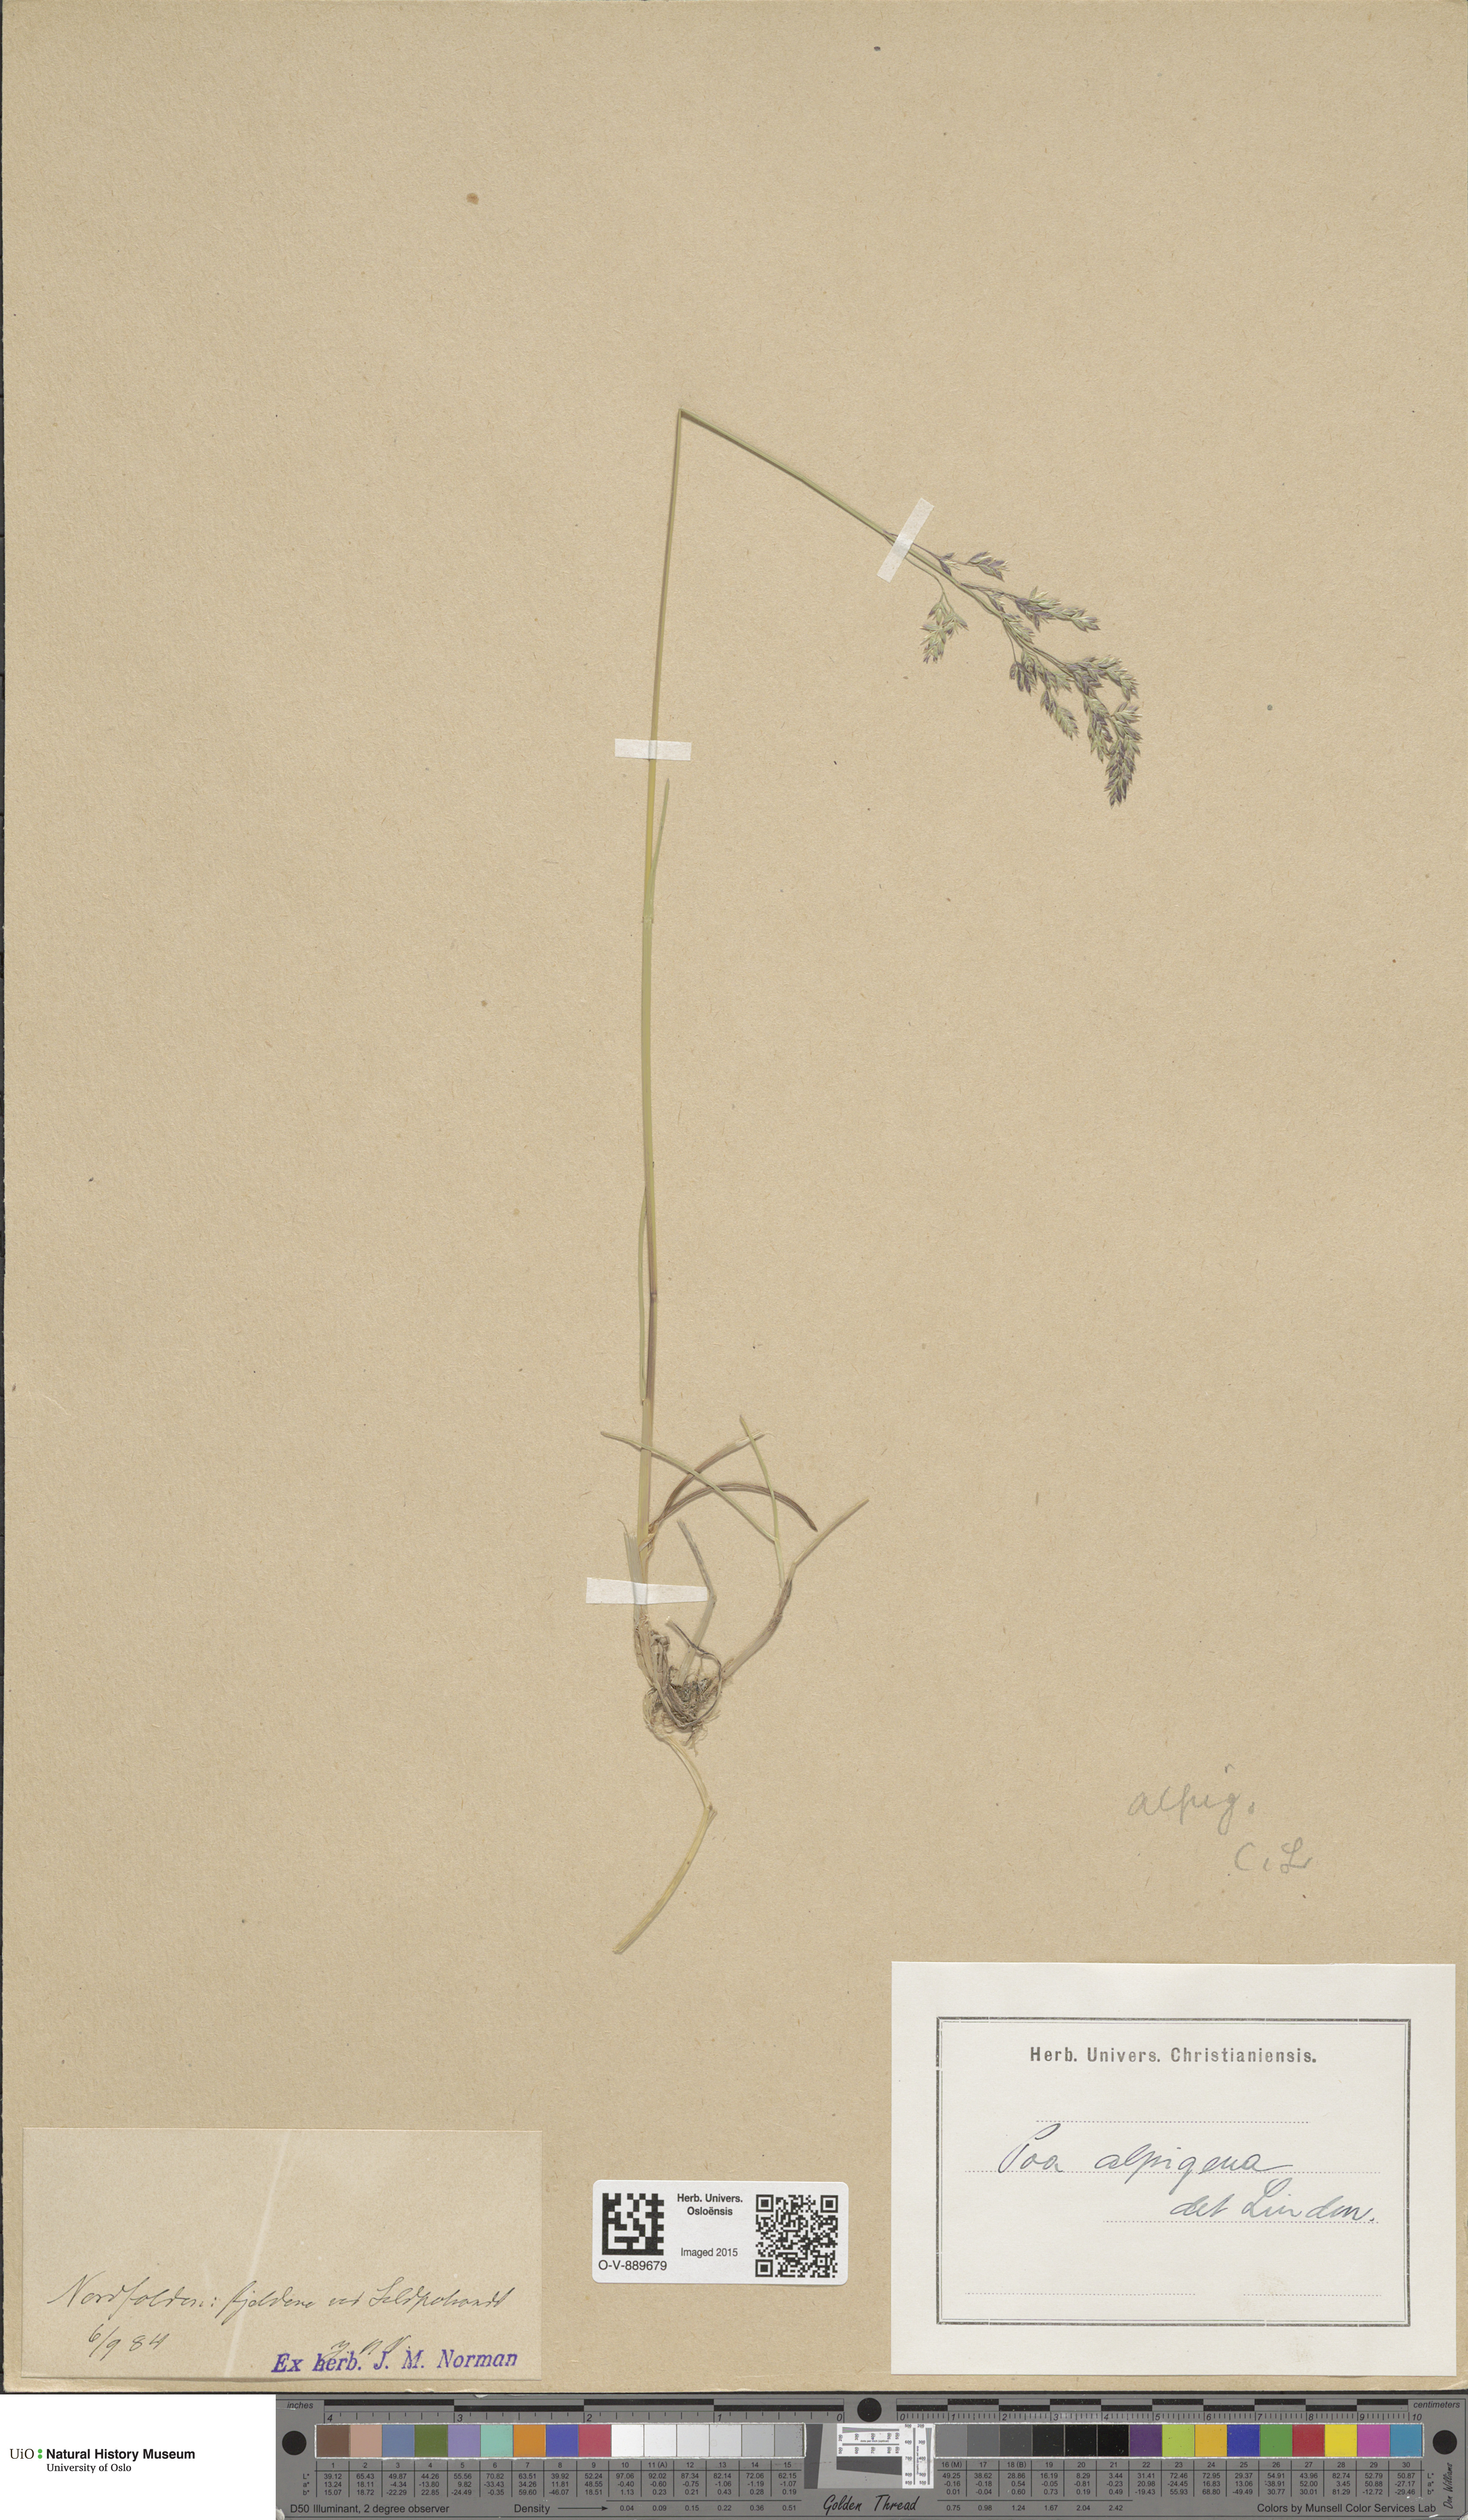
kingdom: Plantae
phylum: Tracheophyta
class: Liliopsida
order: Poales
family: Poaceae
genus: Poa
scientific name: Poa alpigena
